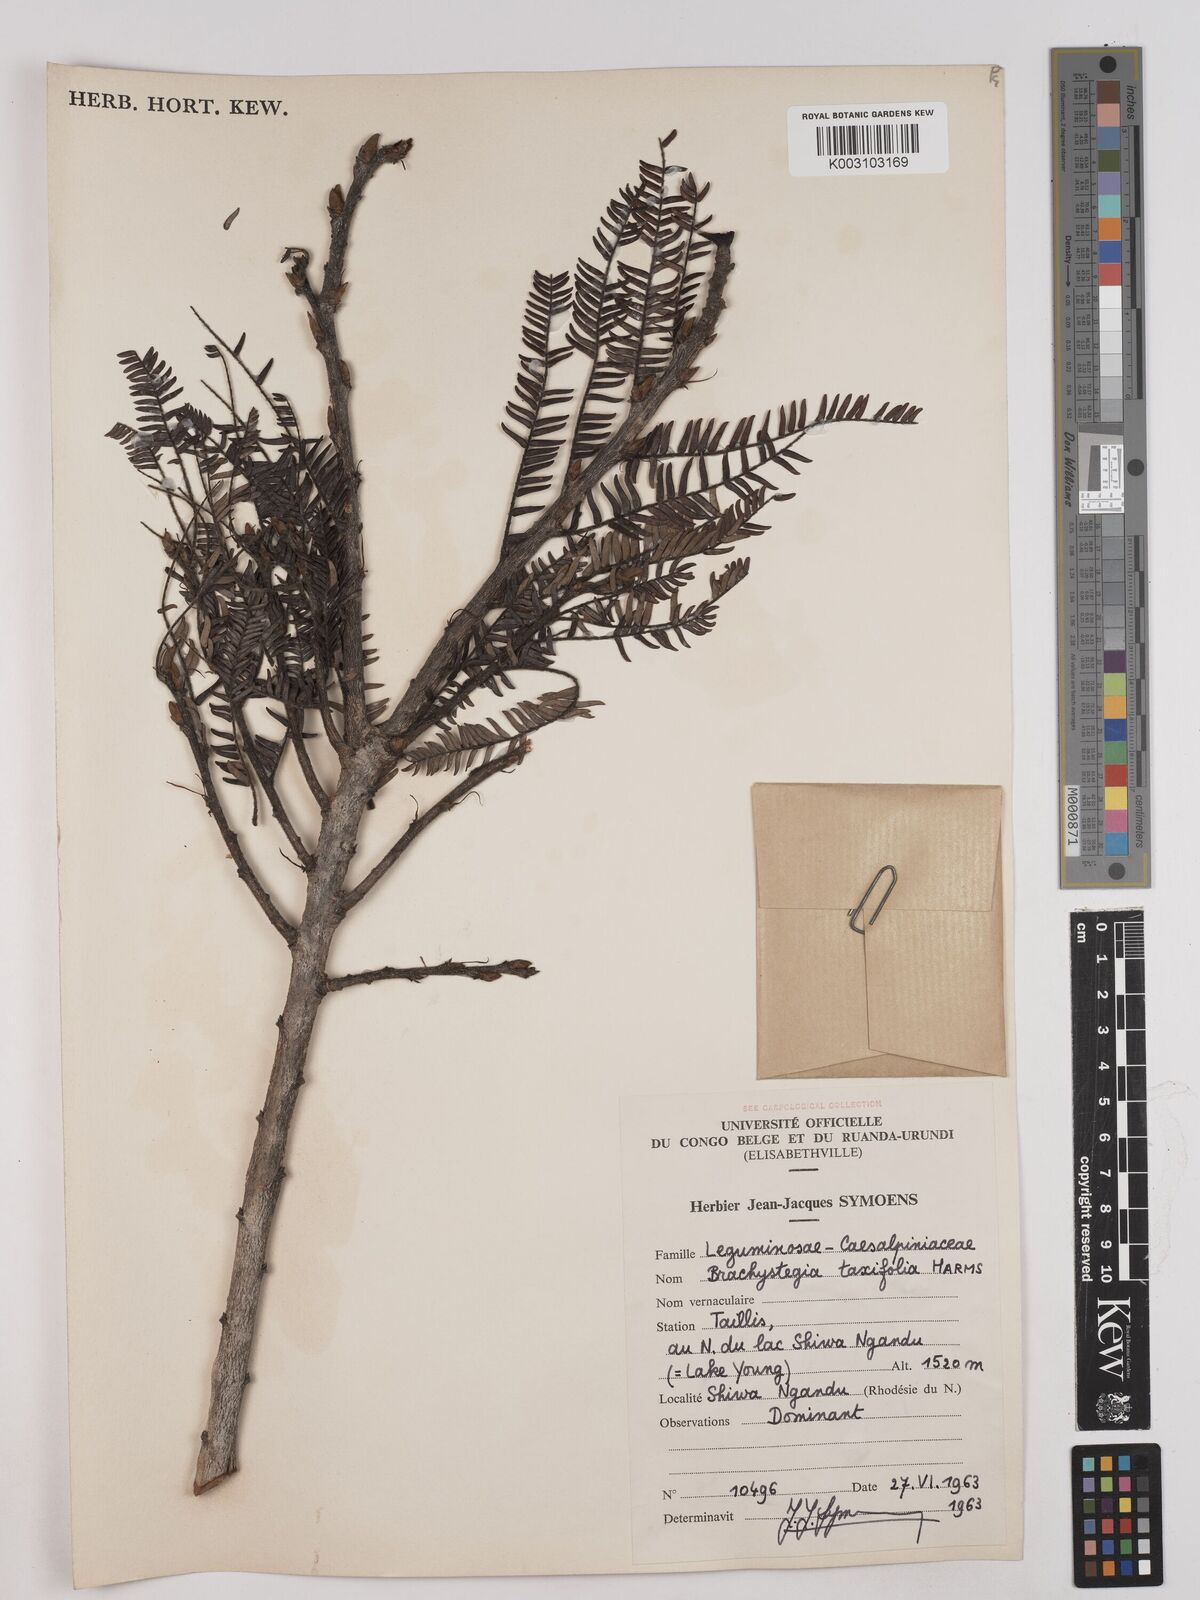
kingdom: Plantae
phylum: Tracheophyta
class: Magnoliopsida
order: Fabales
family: Fabaceae
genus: Brachystegia
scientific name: Brachystegia taxifolia
